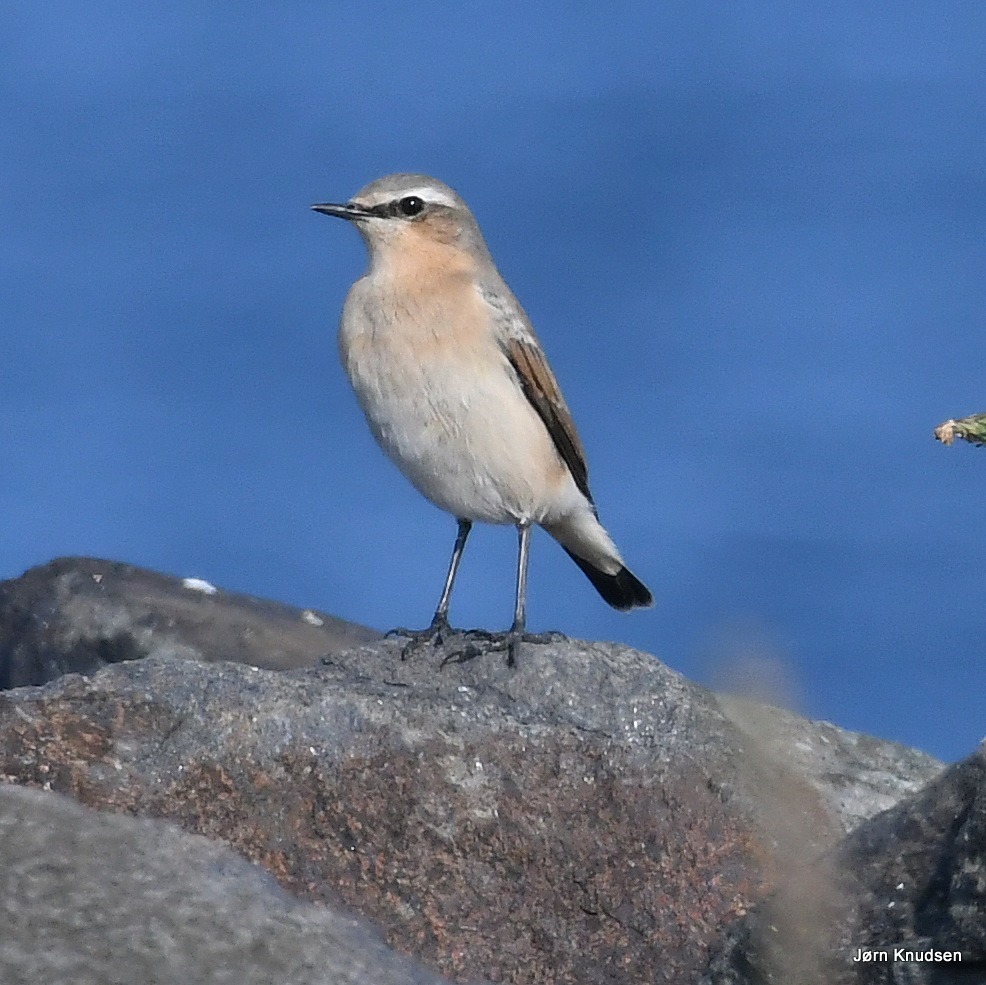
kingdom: Animalia
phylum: Chordata
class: Aves
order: Passeriformes
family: Muscicapidae
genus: Oenanthe
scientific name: Oenanthe oenanthe
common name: Stenpikker
